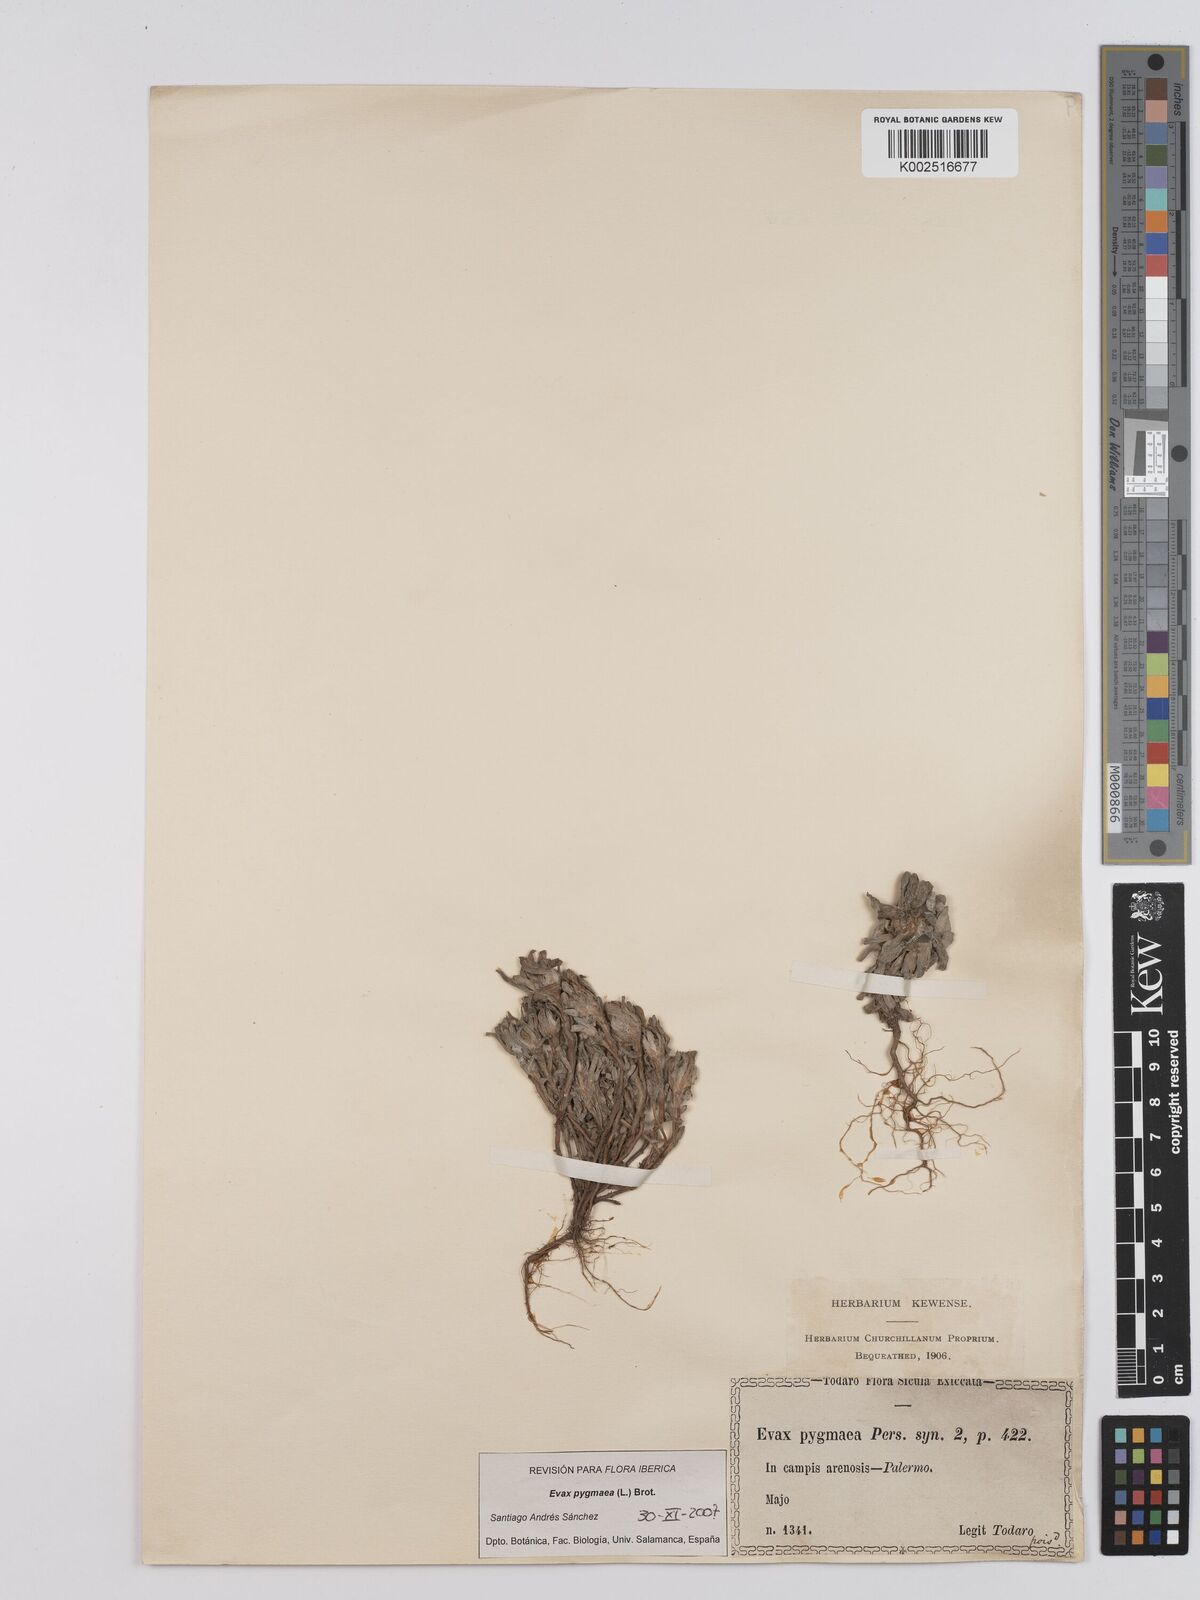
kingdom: Plantae
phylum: Tracheophyta
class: Magnoliopsida
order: Asterales
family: Asteraceae
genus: Filago
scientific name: Filago pygmaea
